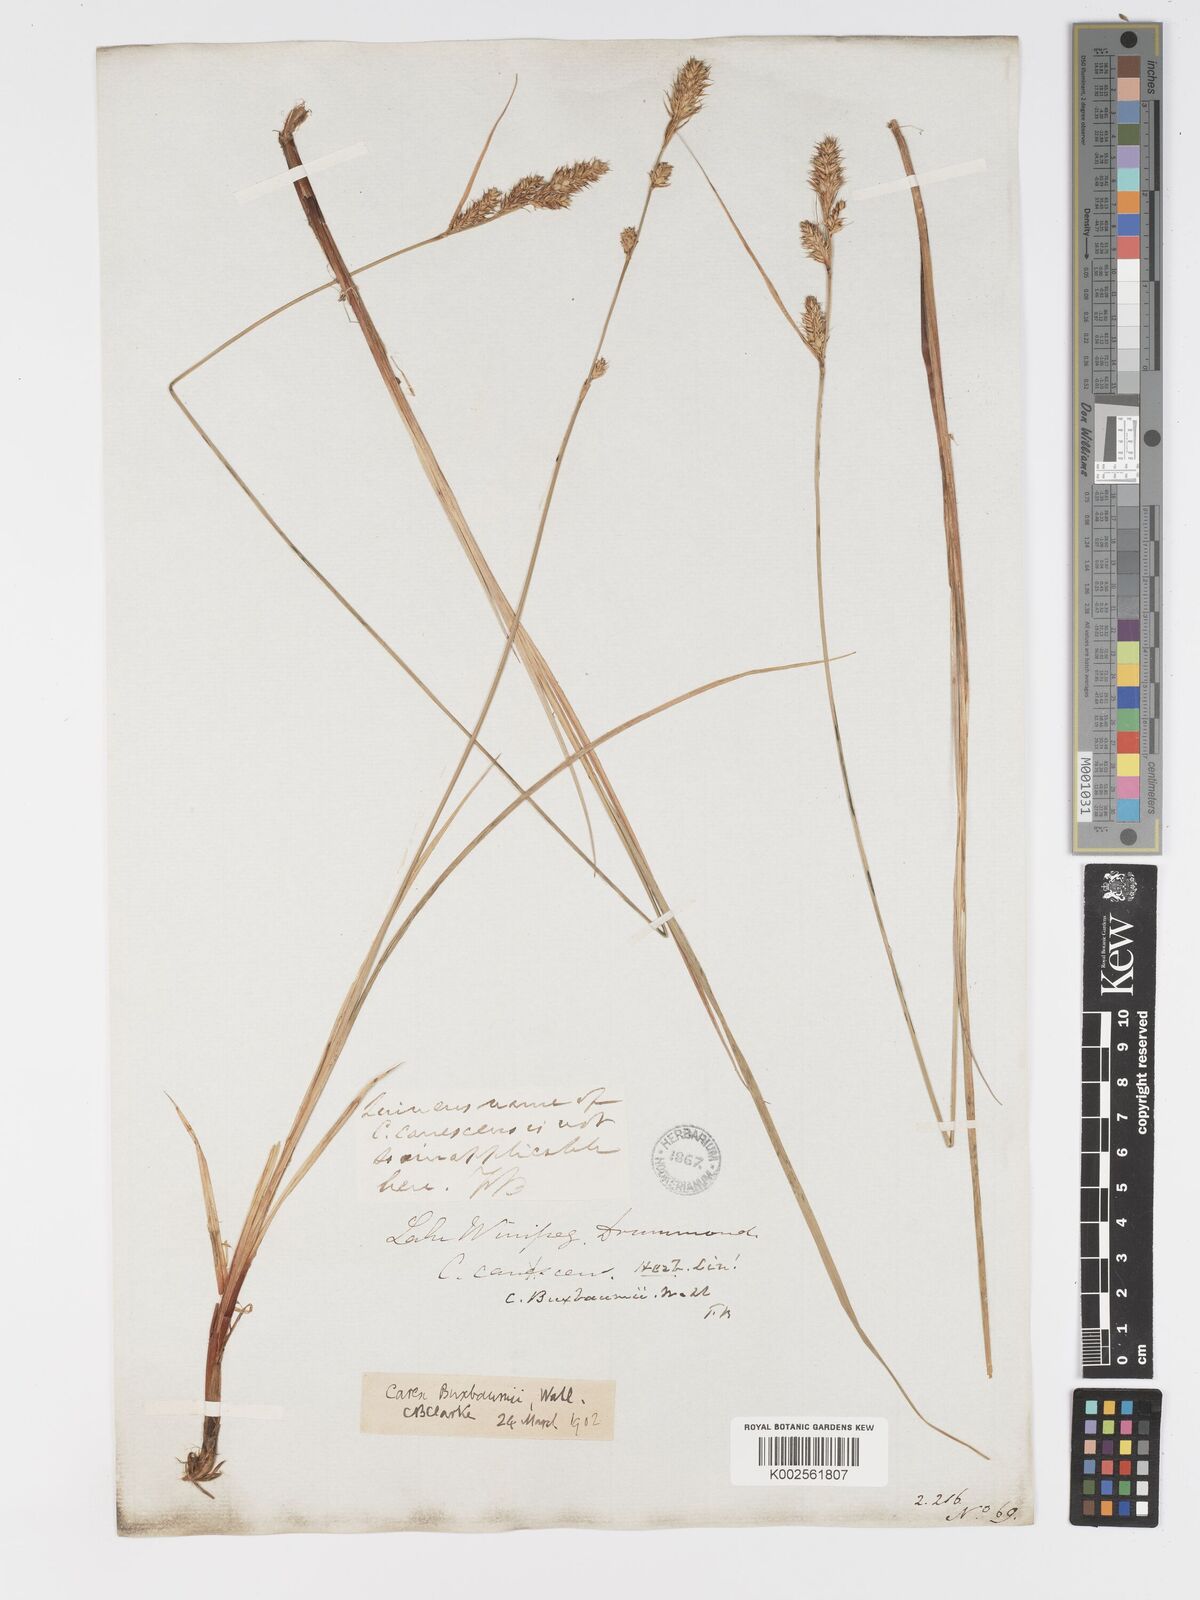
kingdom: Plantae
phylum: Tracheophyta
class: Liliopsida
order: Poales
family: Cyperaceae
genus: Carex
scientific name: Carex buxbaumii
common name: Club sedge
